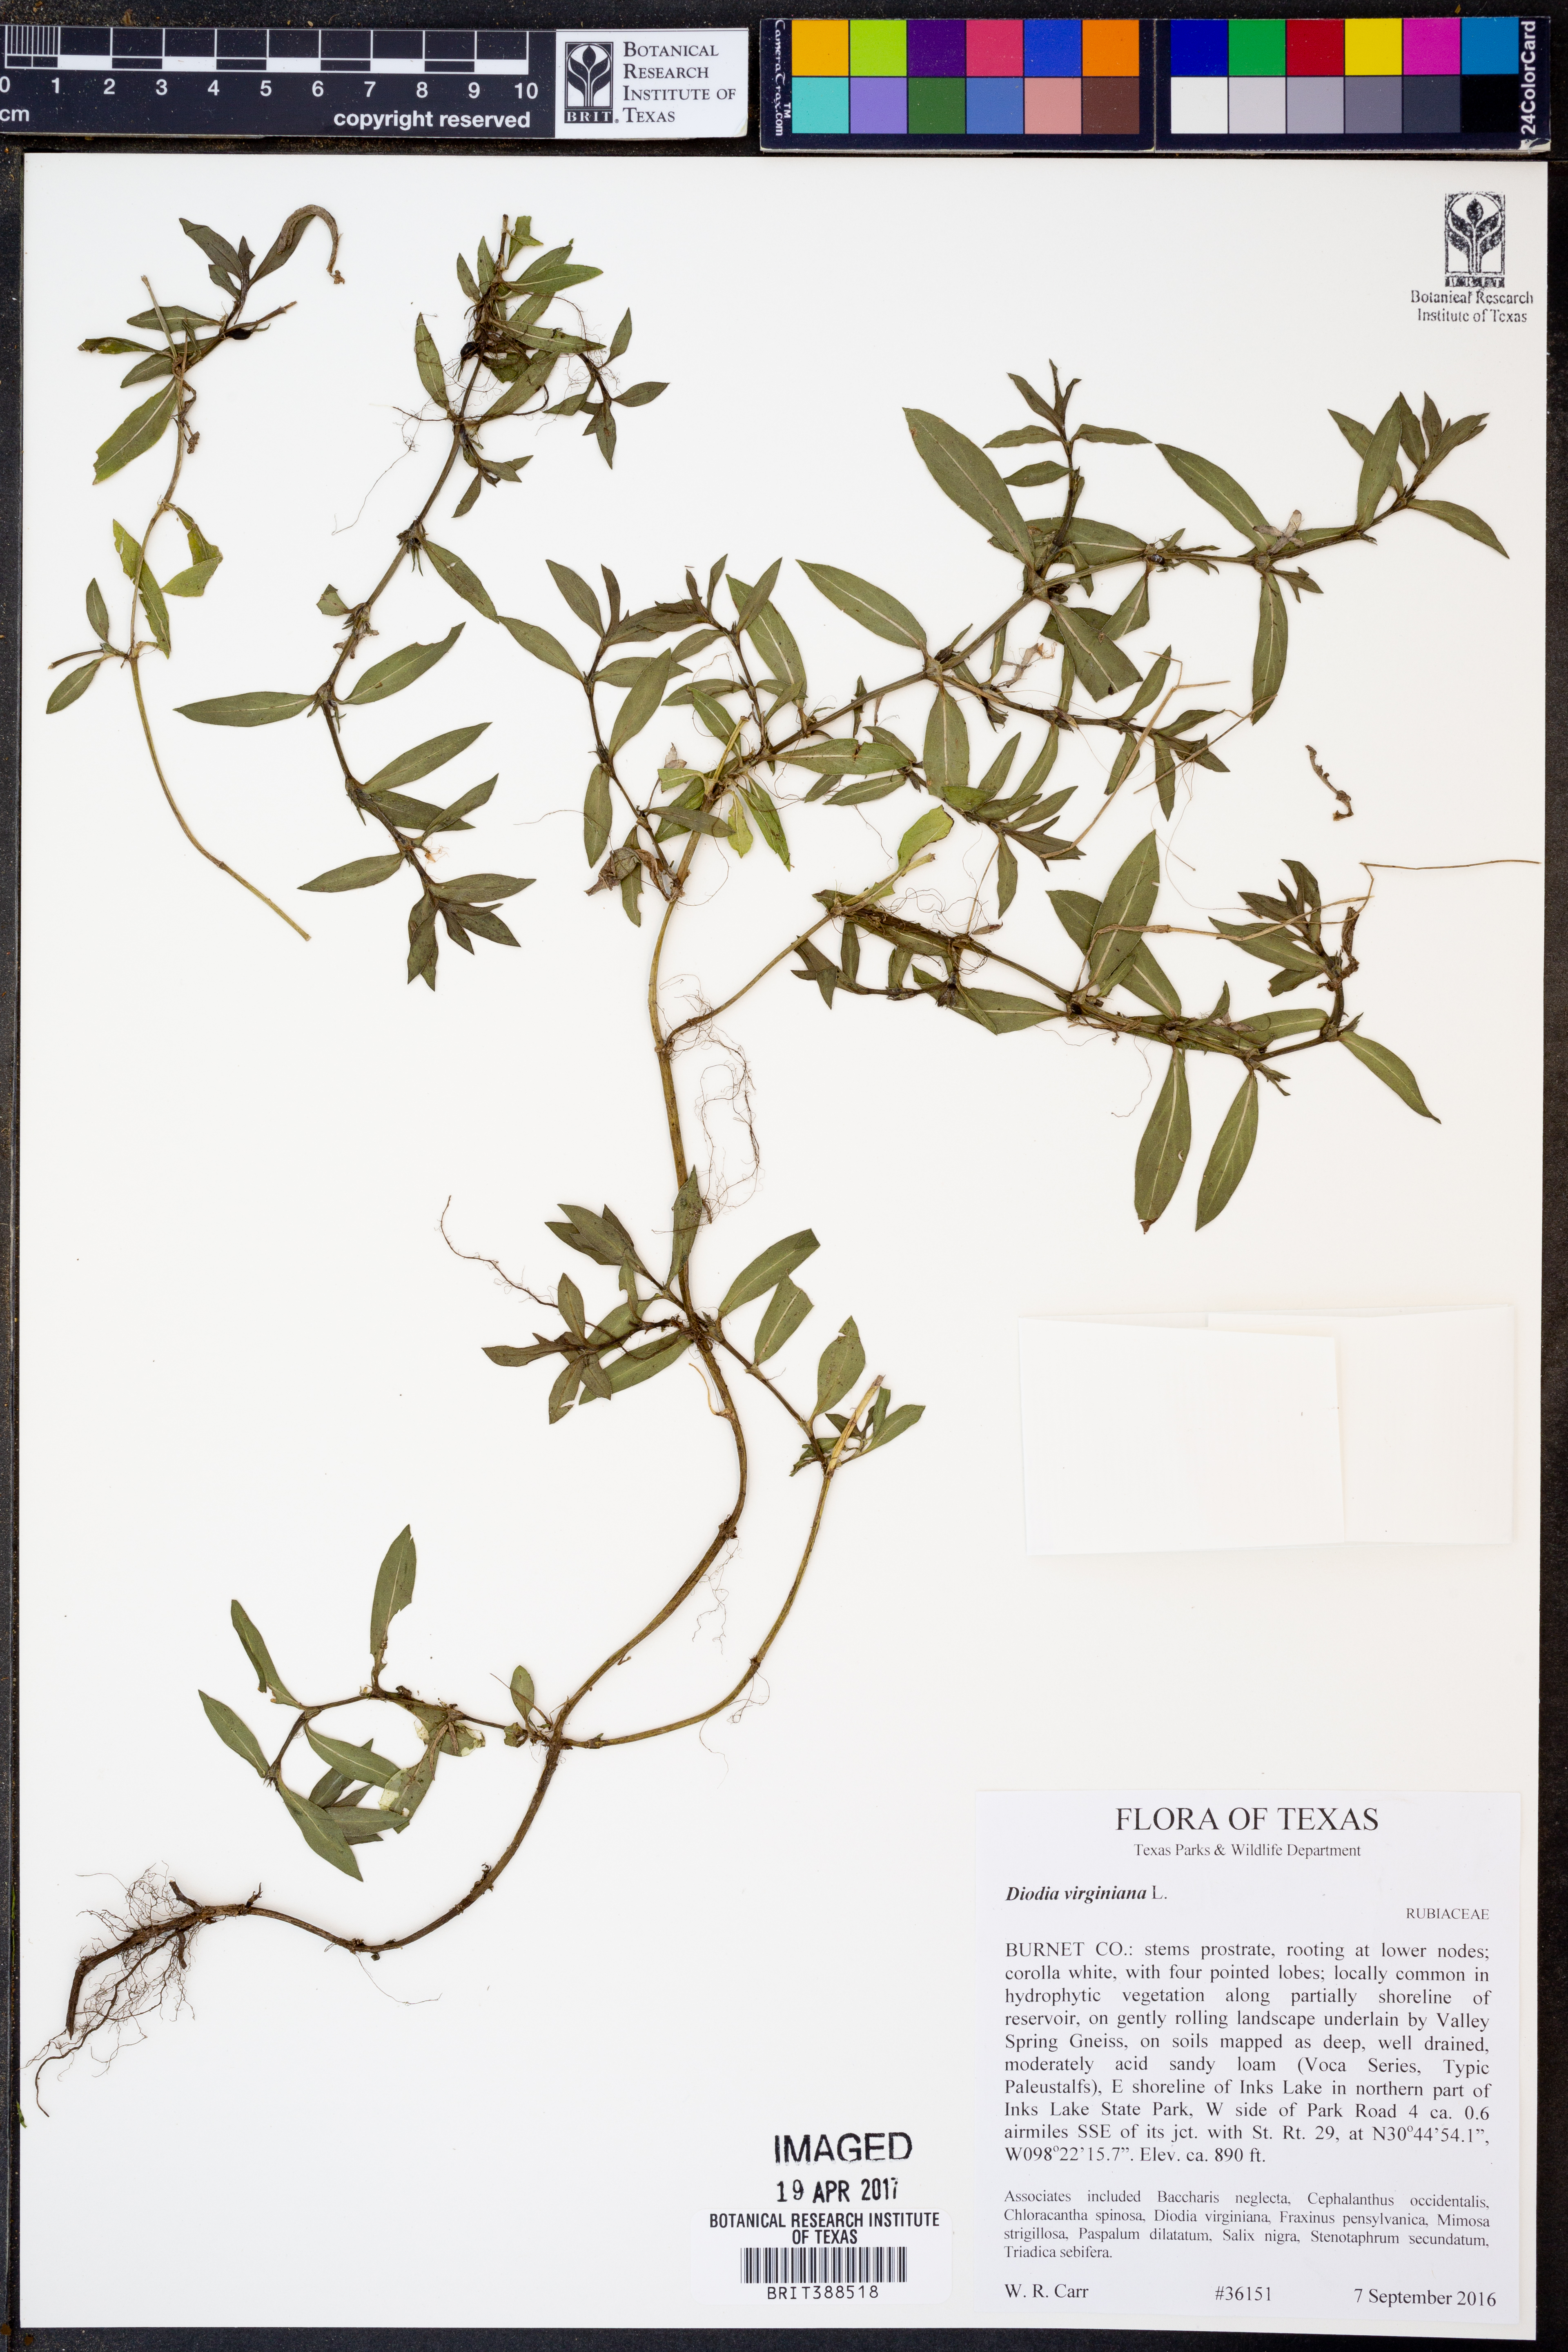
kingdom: Plantae
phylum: Tracheophyta
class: Magnoliopsida
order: Gentianales
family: Rubiaceae
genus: Diodia
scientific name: Diodia virginiana
